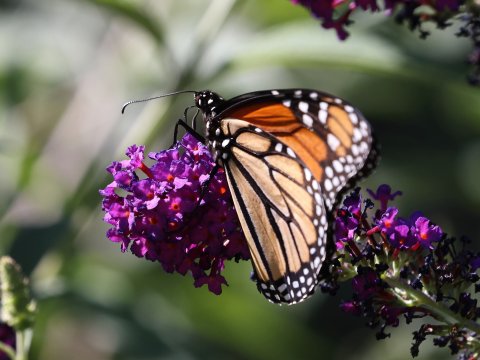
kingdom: Animalia
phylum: Arthropoda
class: Insecta
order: Lepidoptera
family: Nymphalidae
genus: Danaus
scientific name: Danaus plexippus
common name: Monarch
